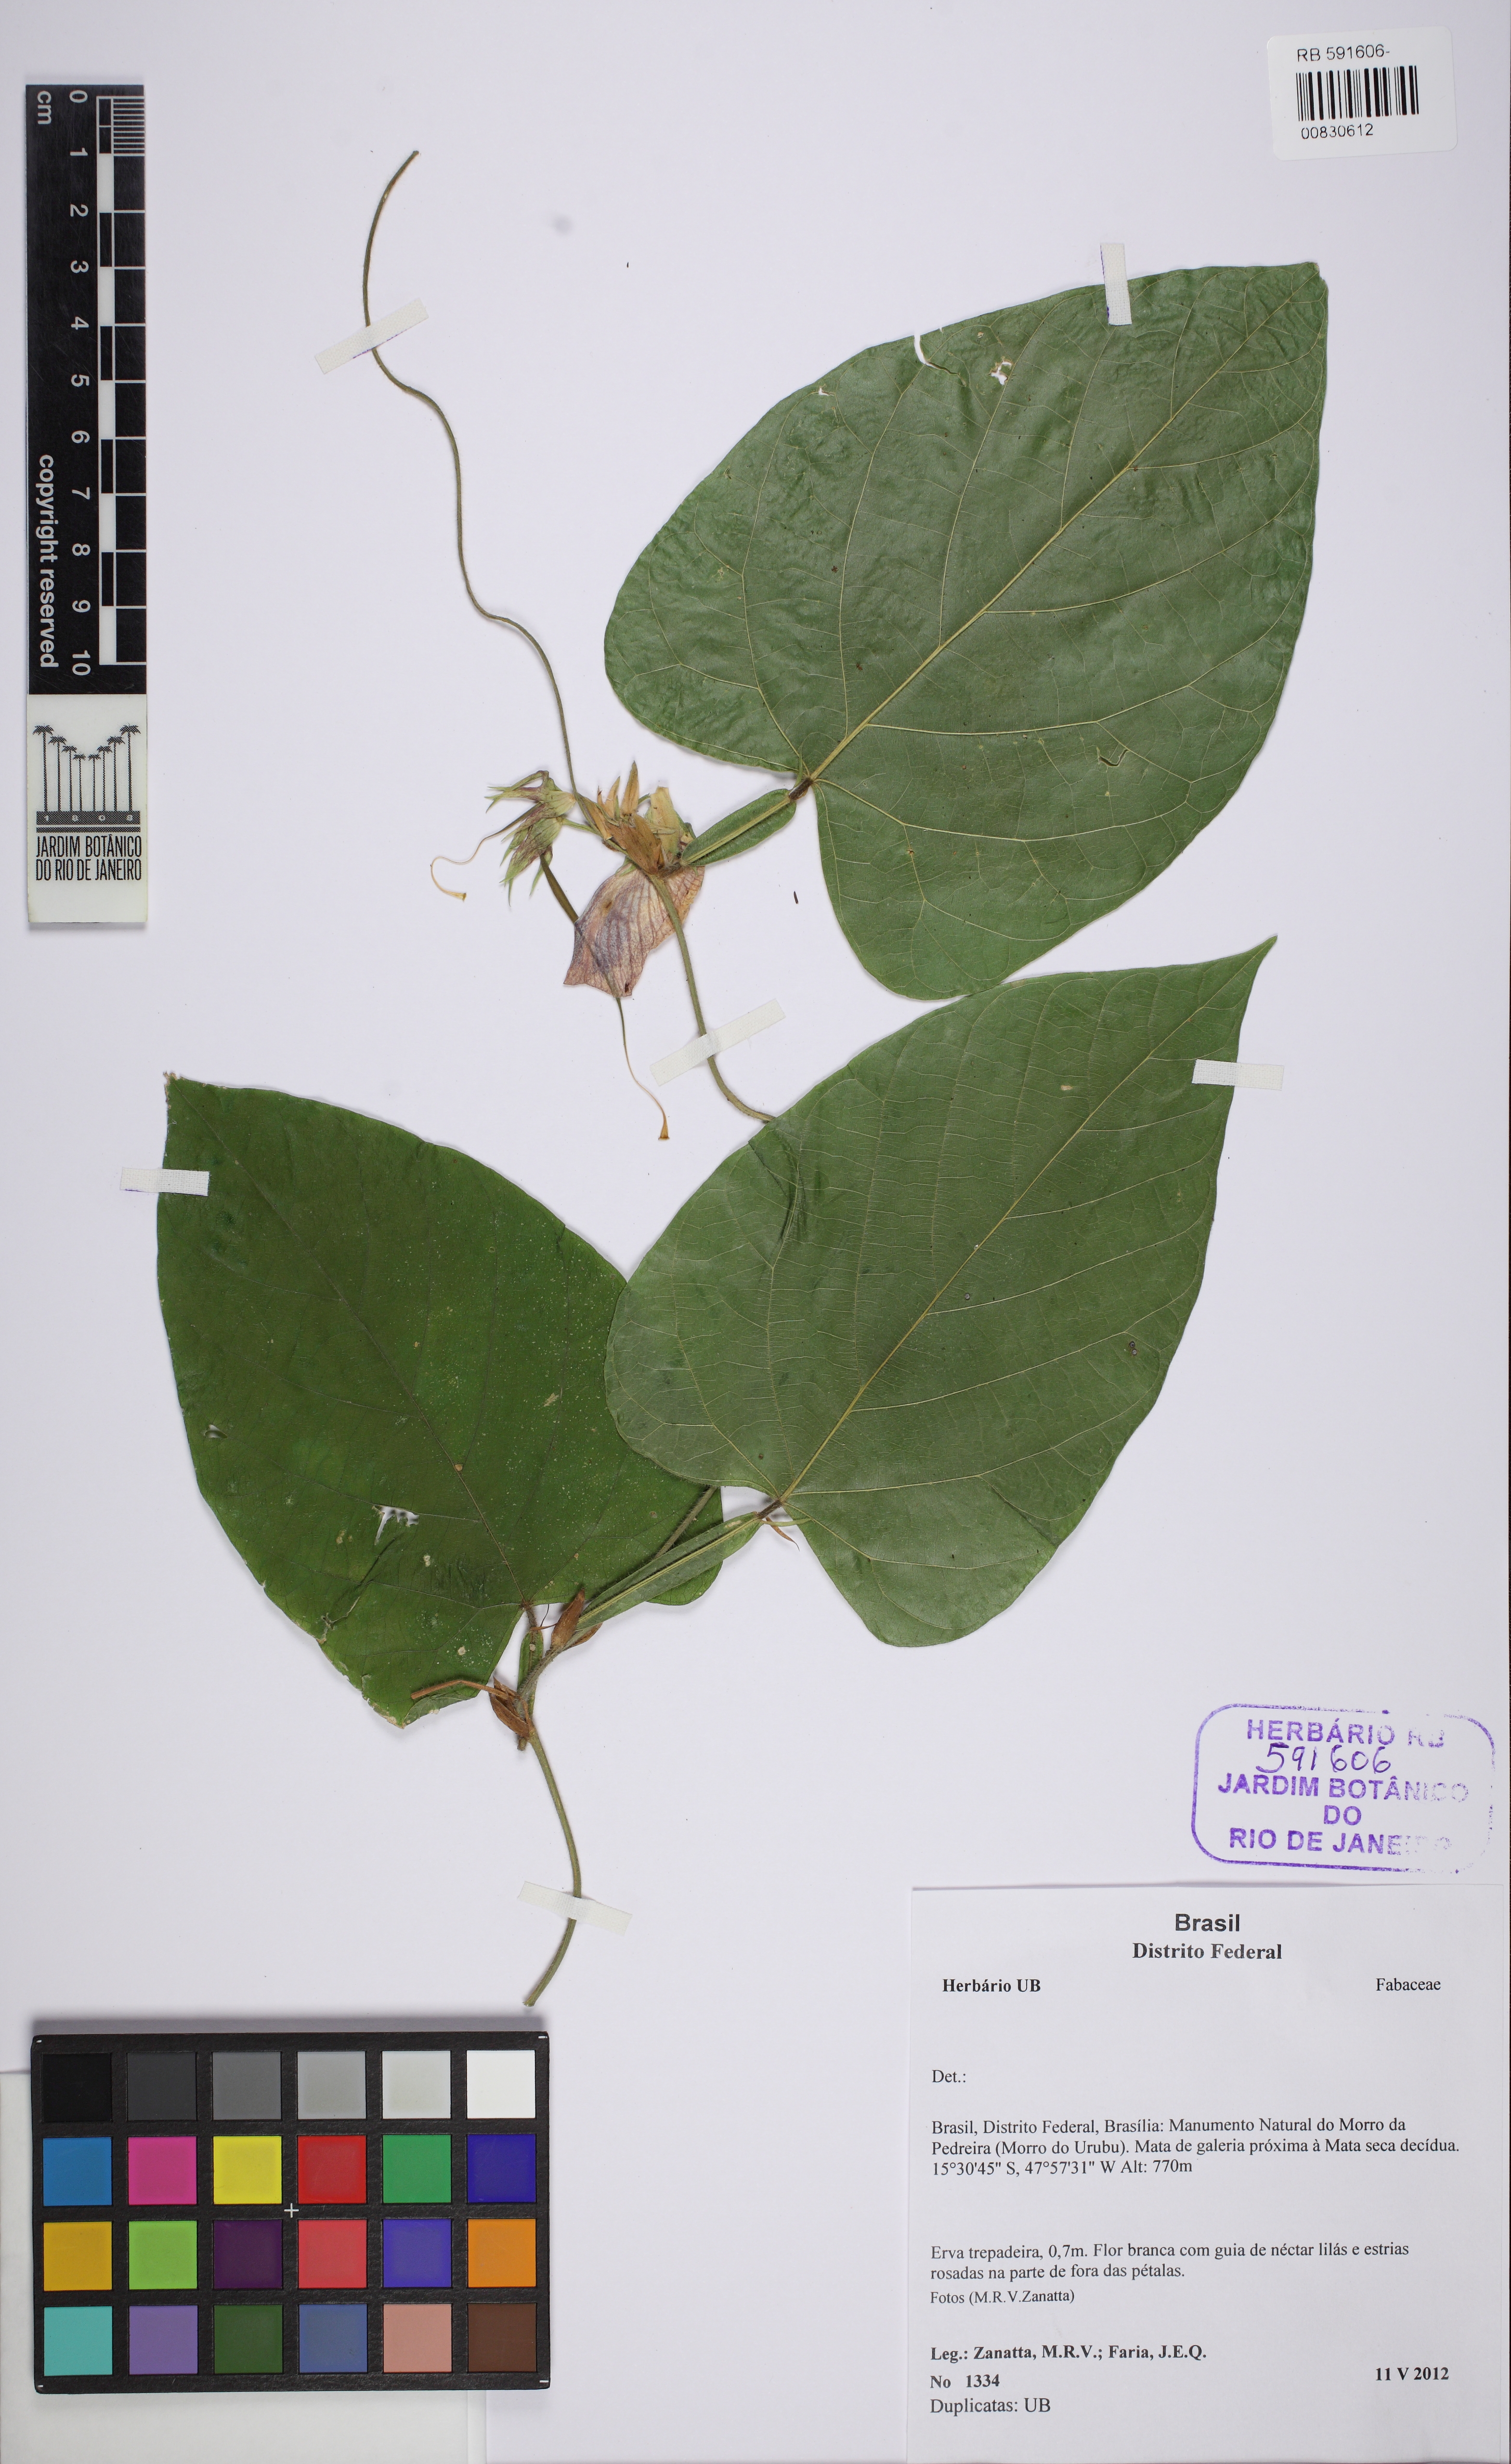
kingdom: Plantae
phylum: Tracheophyta
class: Magnoliopsida
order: Fabales
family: Fabaceae
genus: Centrosema
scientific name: Centrosema sagittatum
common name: Arrowleaf butterfly pea
